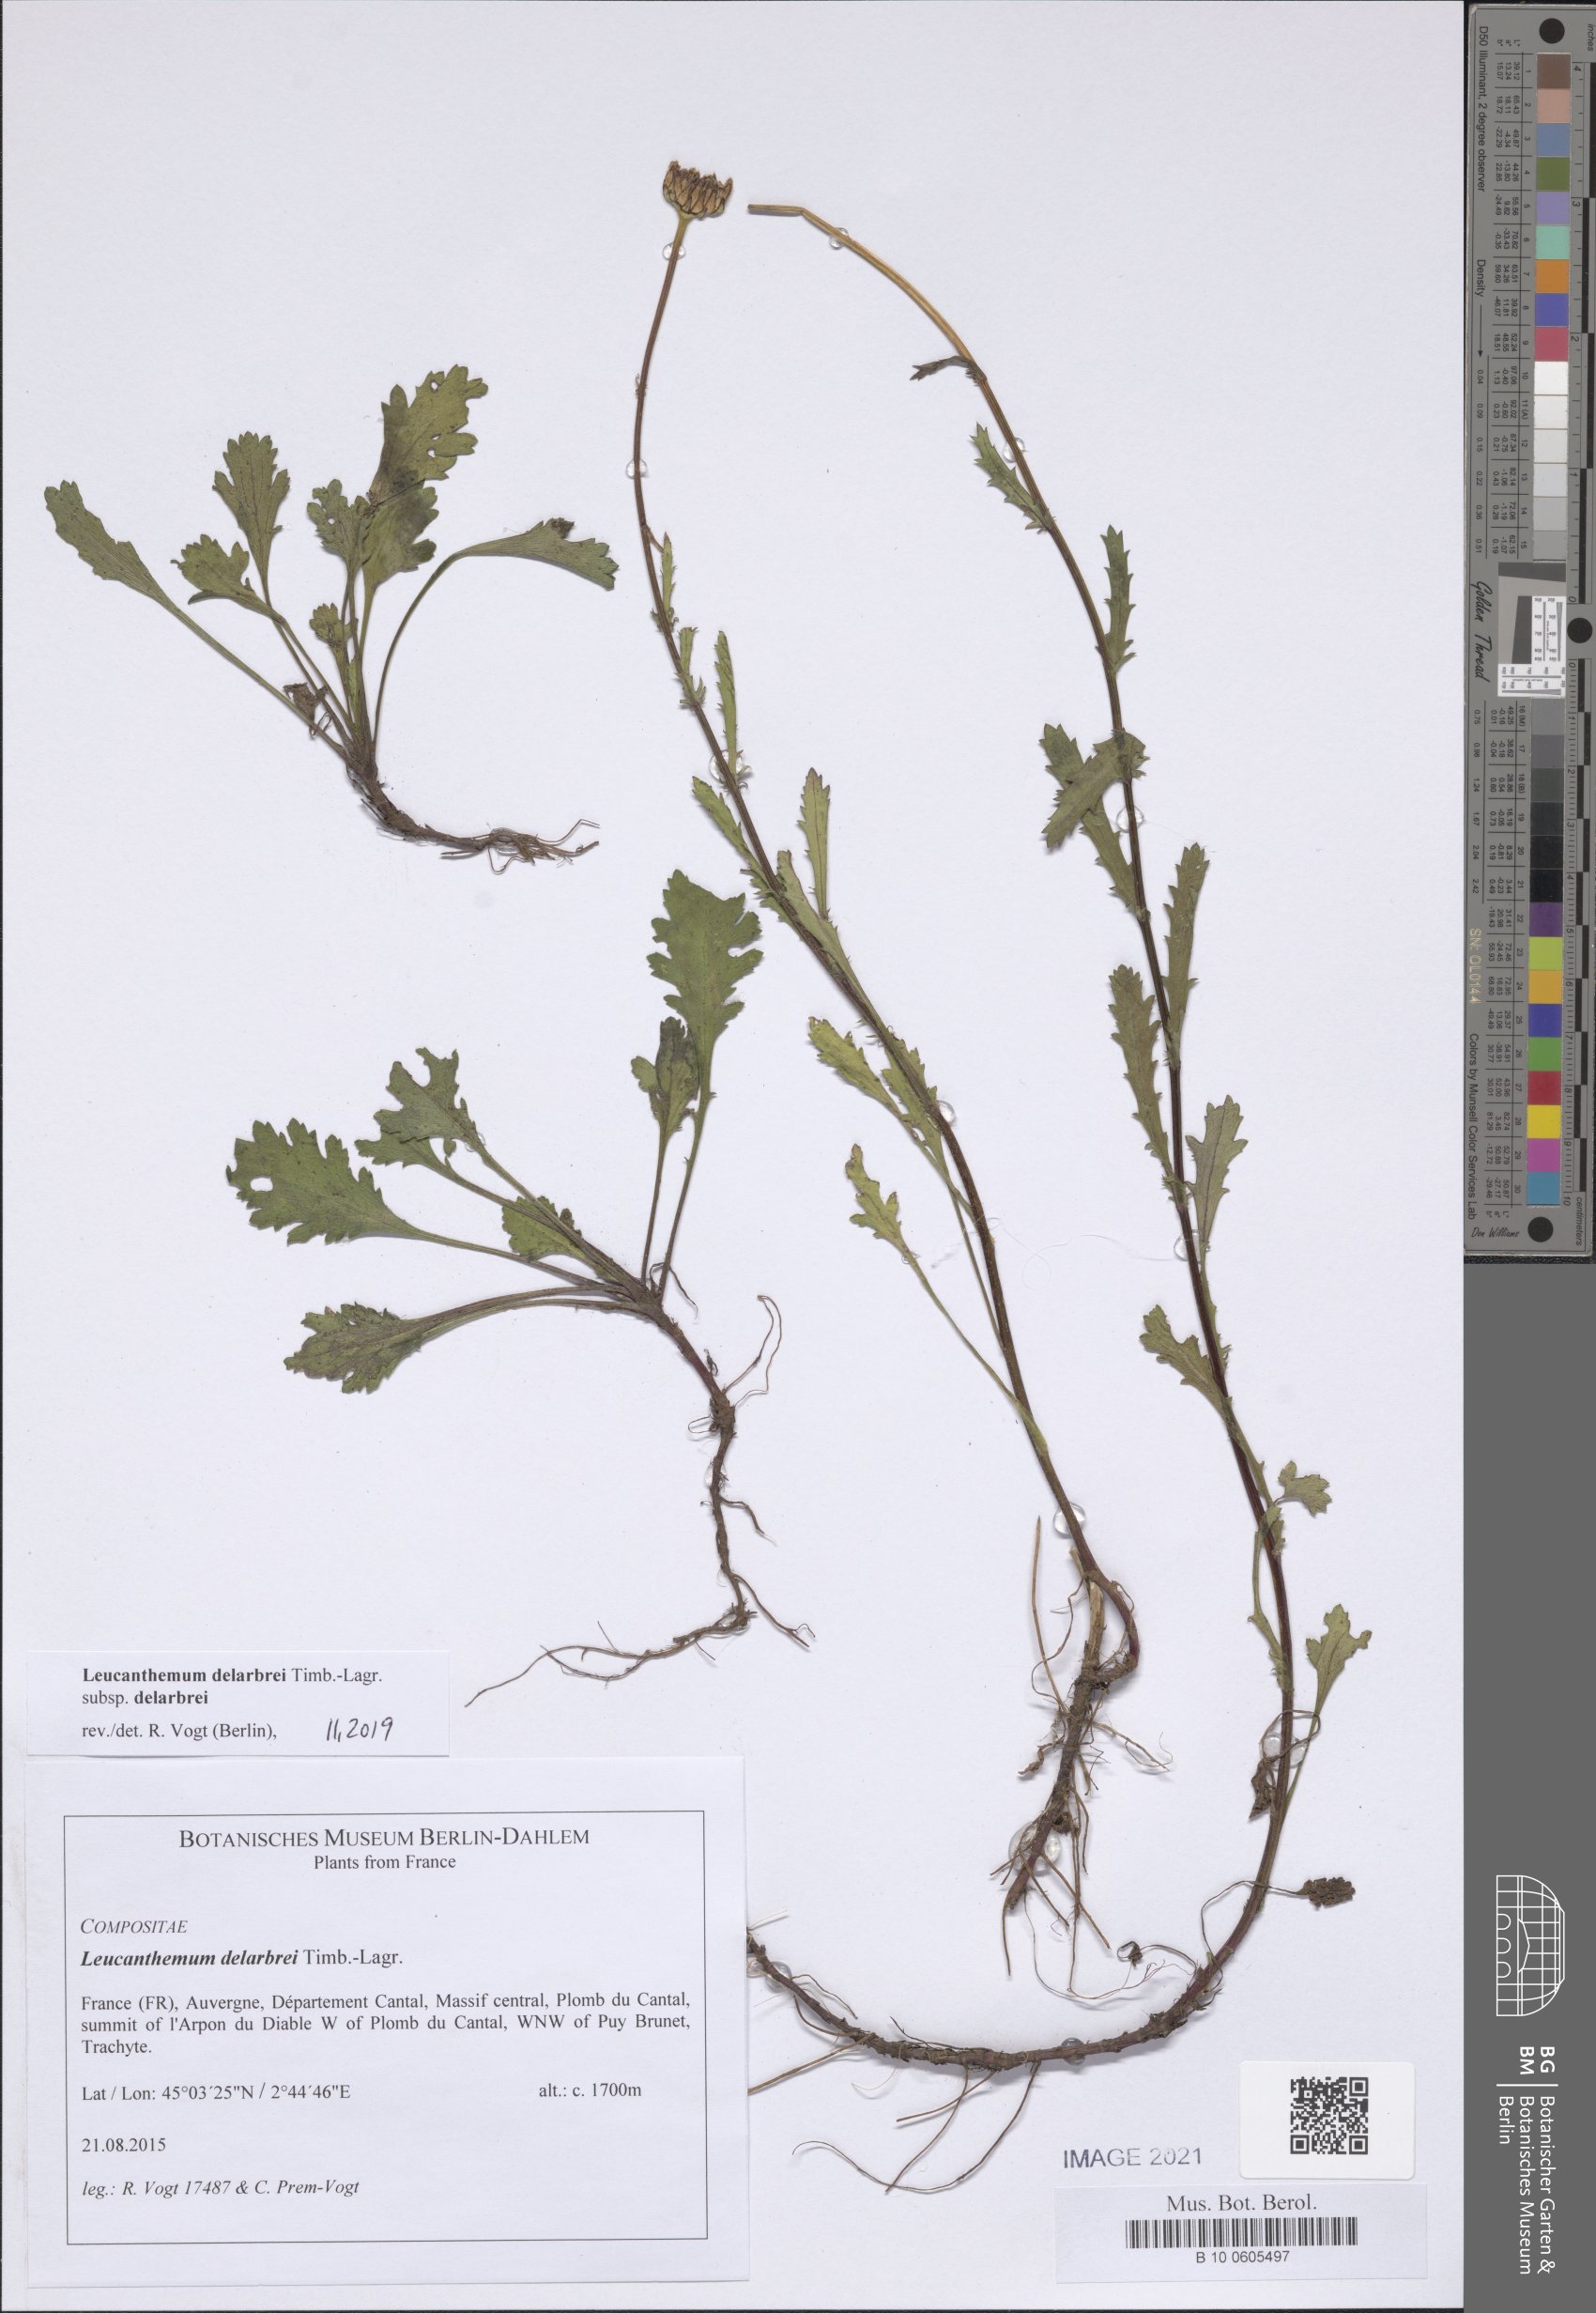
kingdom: Plantae
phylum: Tracheophyta
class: Magnoliopsida
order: Asterales
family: Asteraceae
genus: Leucanthemum
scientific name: Leucanthemum delarbrei
